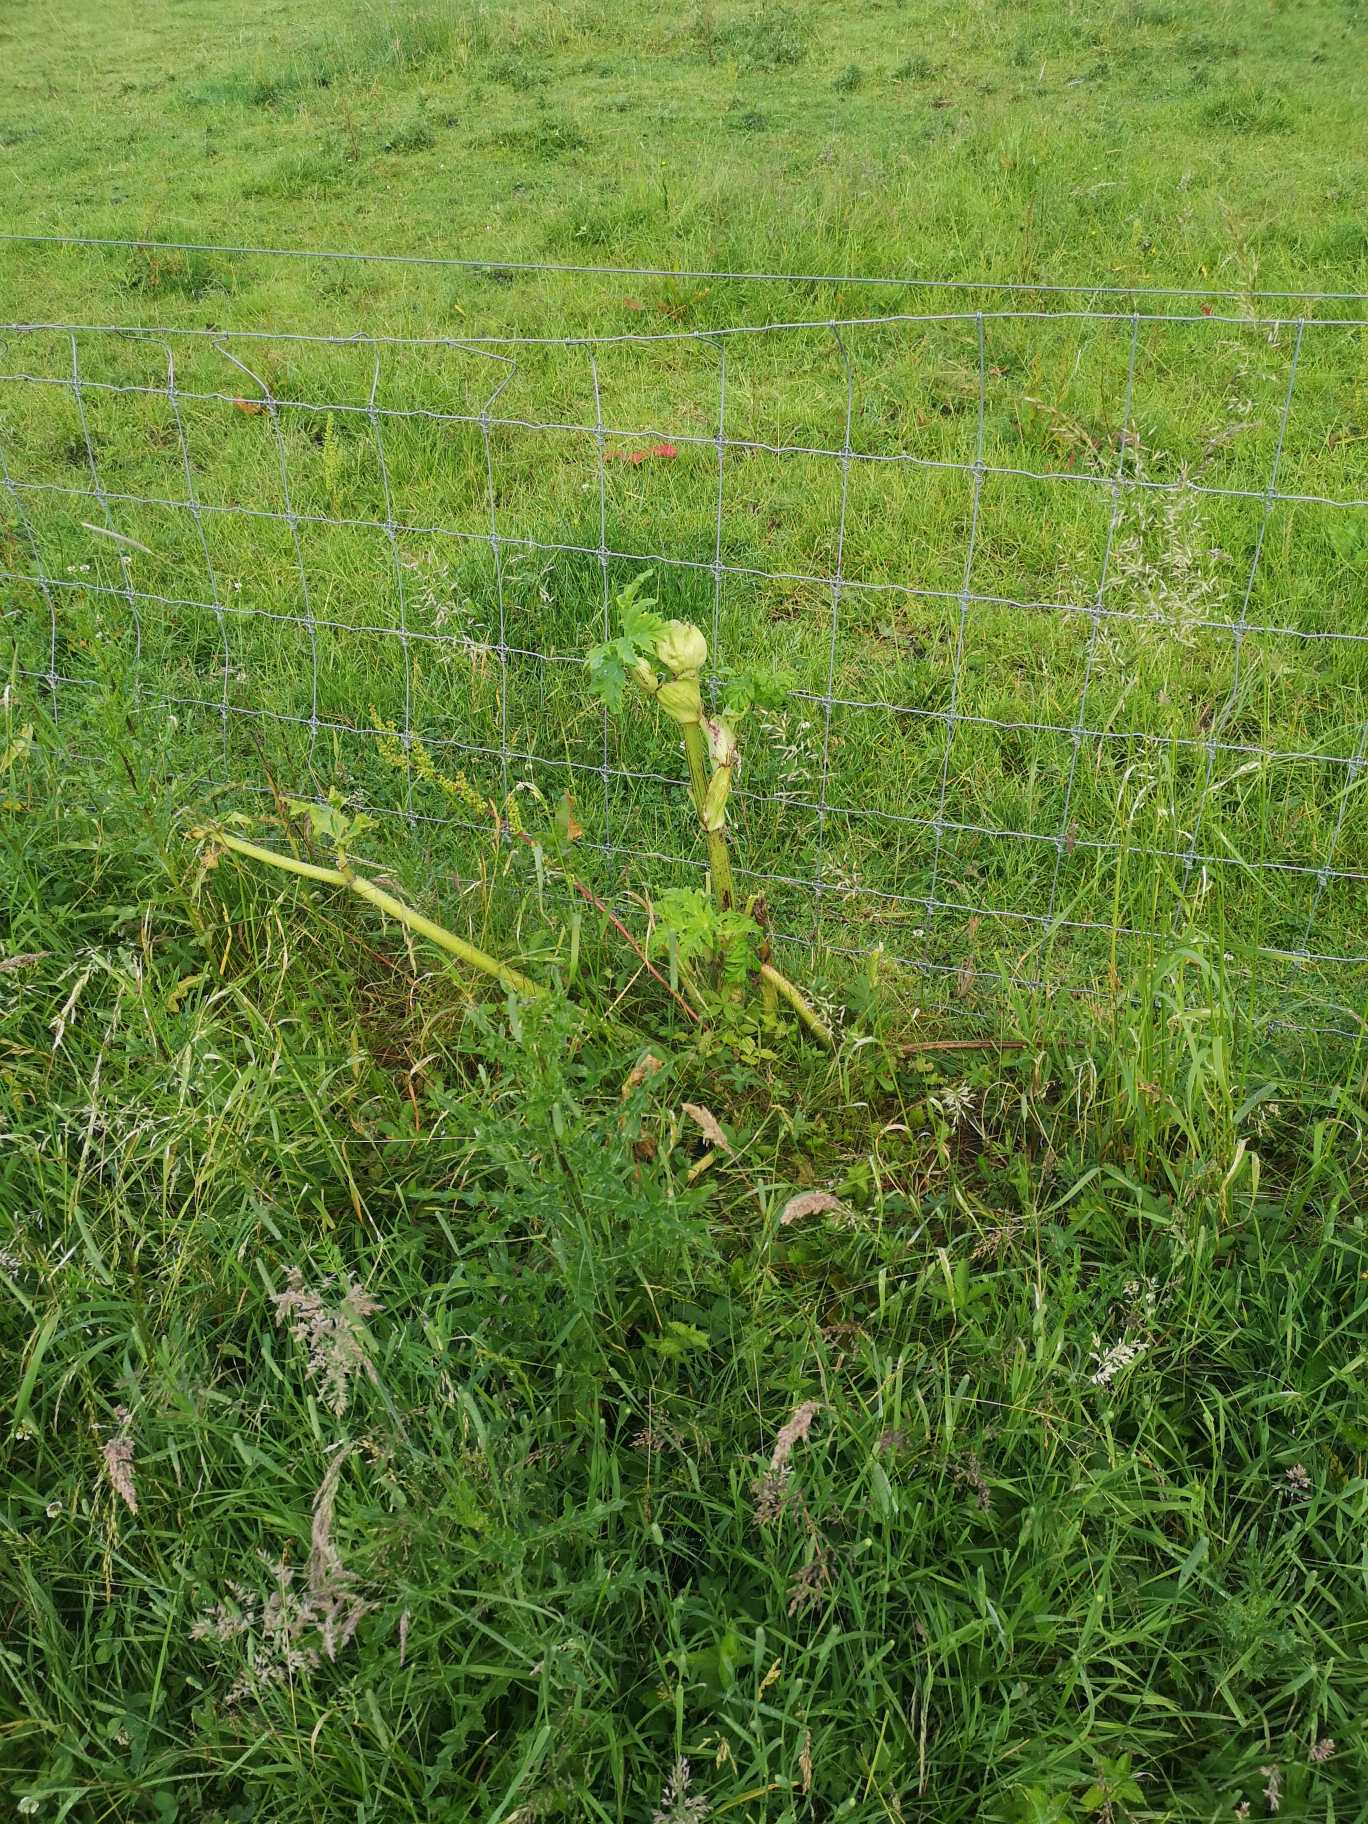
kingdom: Plantae
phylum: Tracheophyta
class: Magnoliopsida
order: Apiales
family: Apiaceae
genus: Heracleum
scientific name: Heracleum mantegazzianum
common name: Kæmpe-bjørneklo
